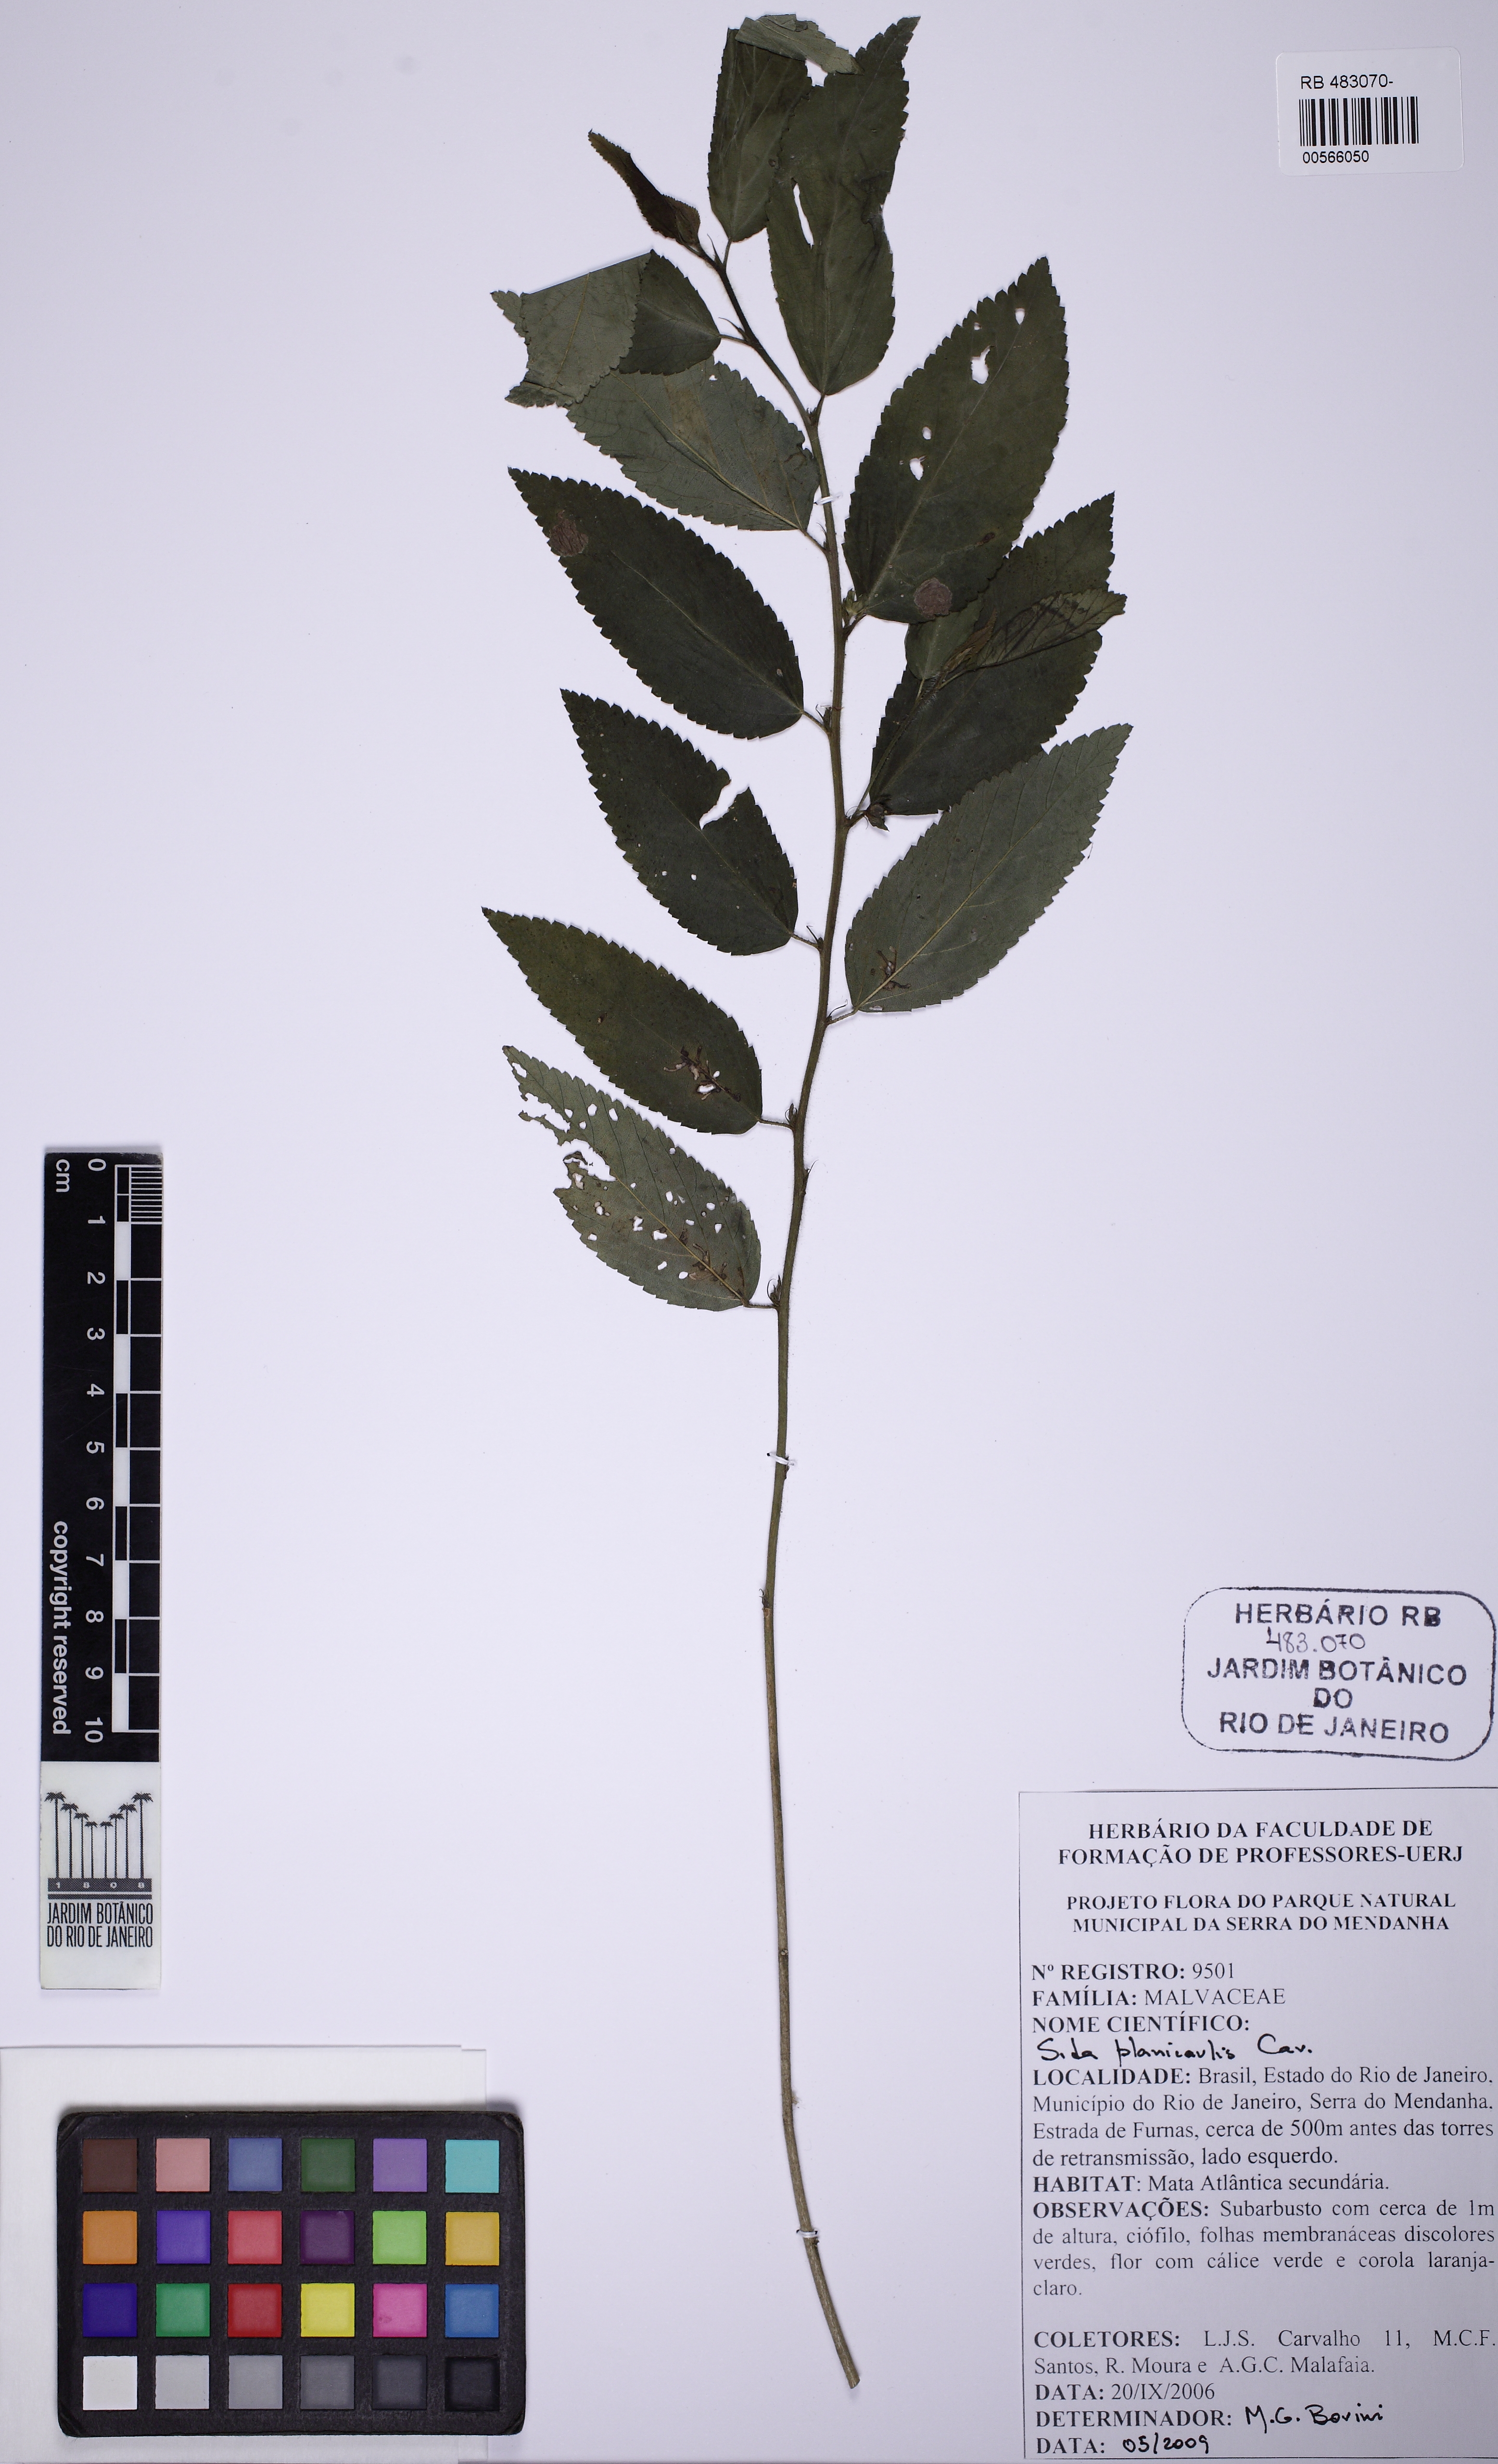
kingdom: Plantae
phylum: Tracheophyta
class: Magnoliopsida
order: Malvales
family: Malvaceae
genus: Sida
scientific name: Sida planicaulis
